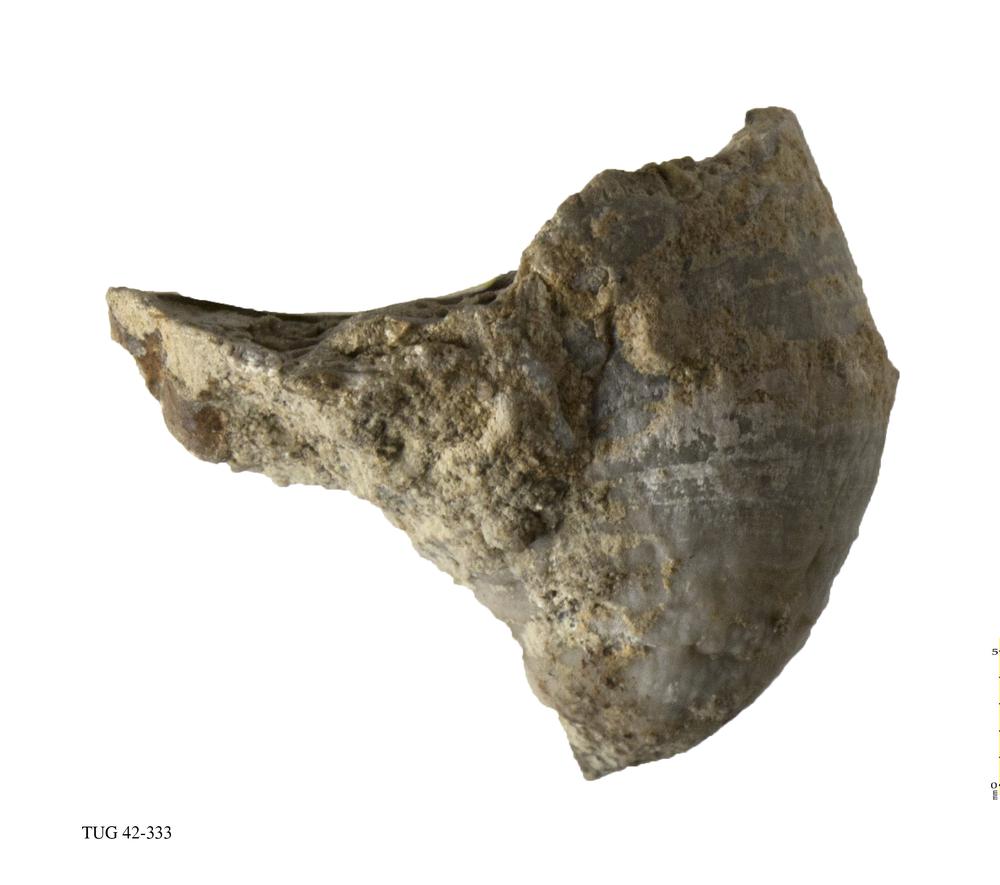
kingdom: Animalia
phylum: Cnidaria
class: Anthozoa
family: Streptelasmatidae
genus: Streptelasma
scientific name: Streptelasma corniculum
